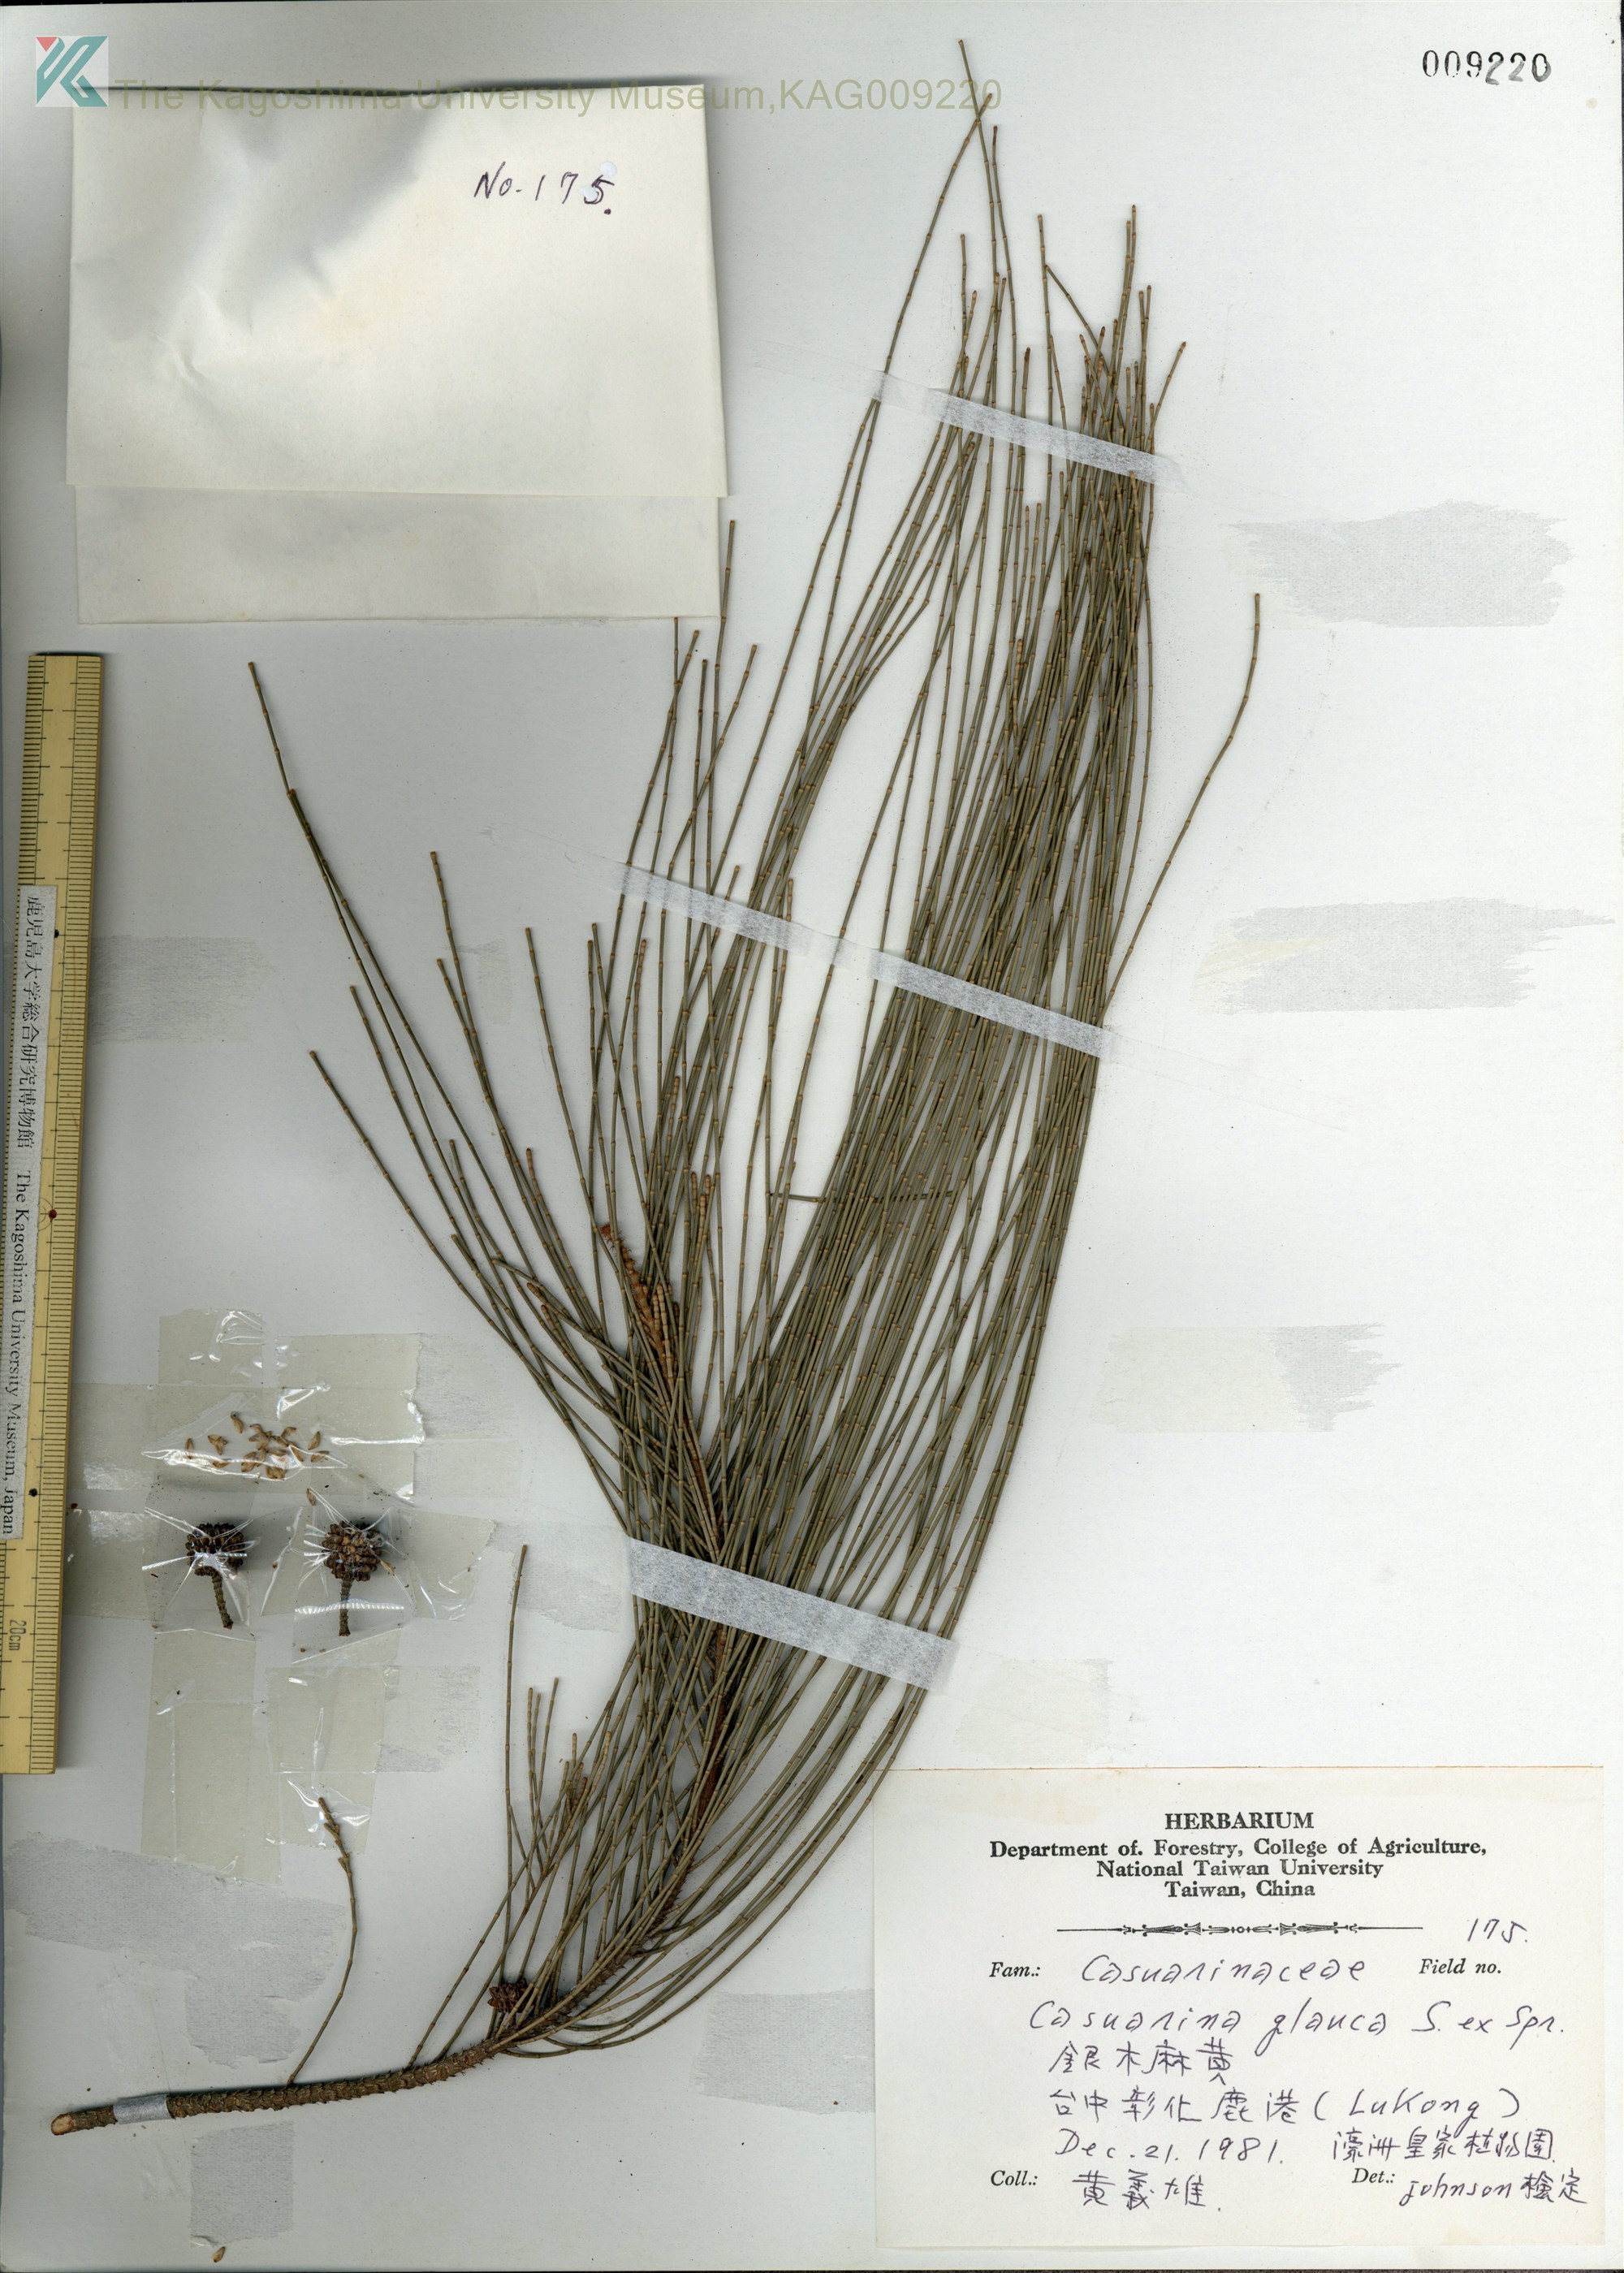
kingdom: Plantae
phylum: Tracheophyta
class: Magnoliopsida
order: Fagales
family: Casuarinaceae
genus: Casuarina
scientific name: Casuarina glauca
